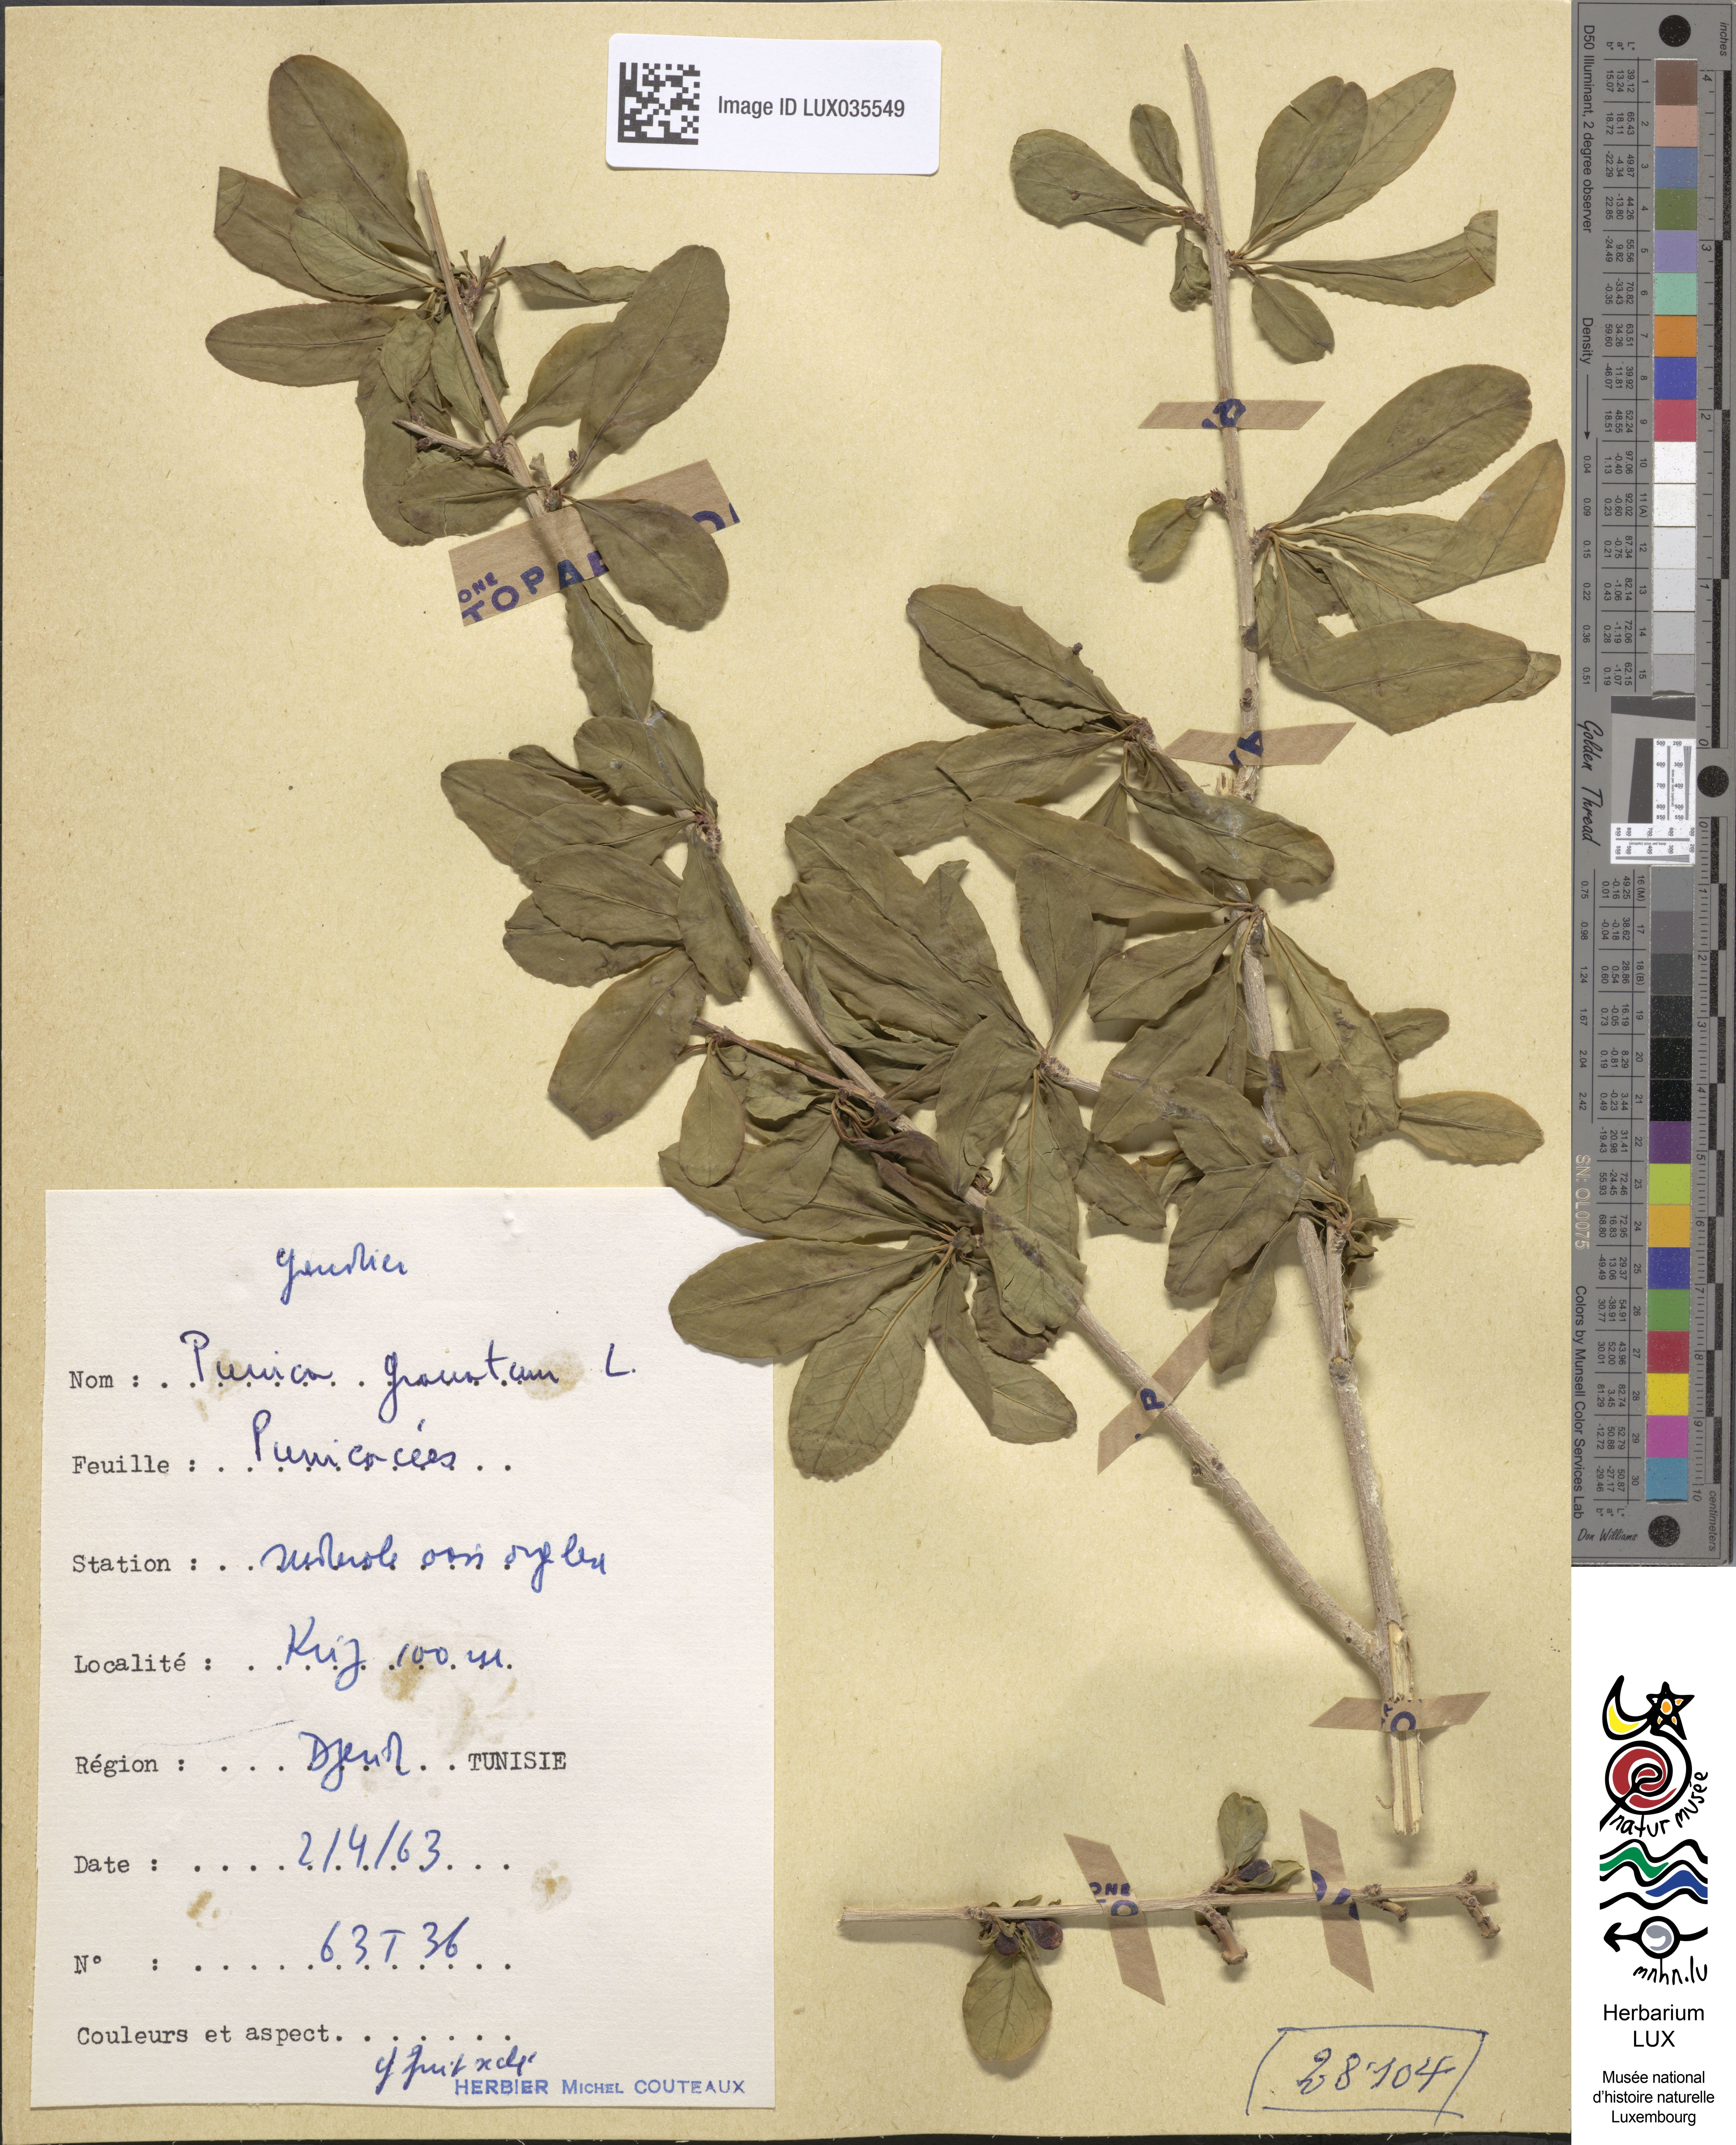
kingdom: Plantae
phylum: Tracheophyta
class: Magnoliopsida
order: Myrtales
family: Lythraceae
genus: Punica
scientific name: Punica granatum
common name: Pomegranate
